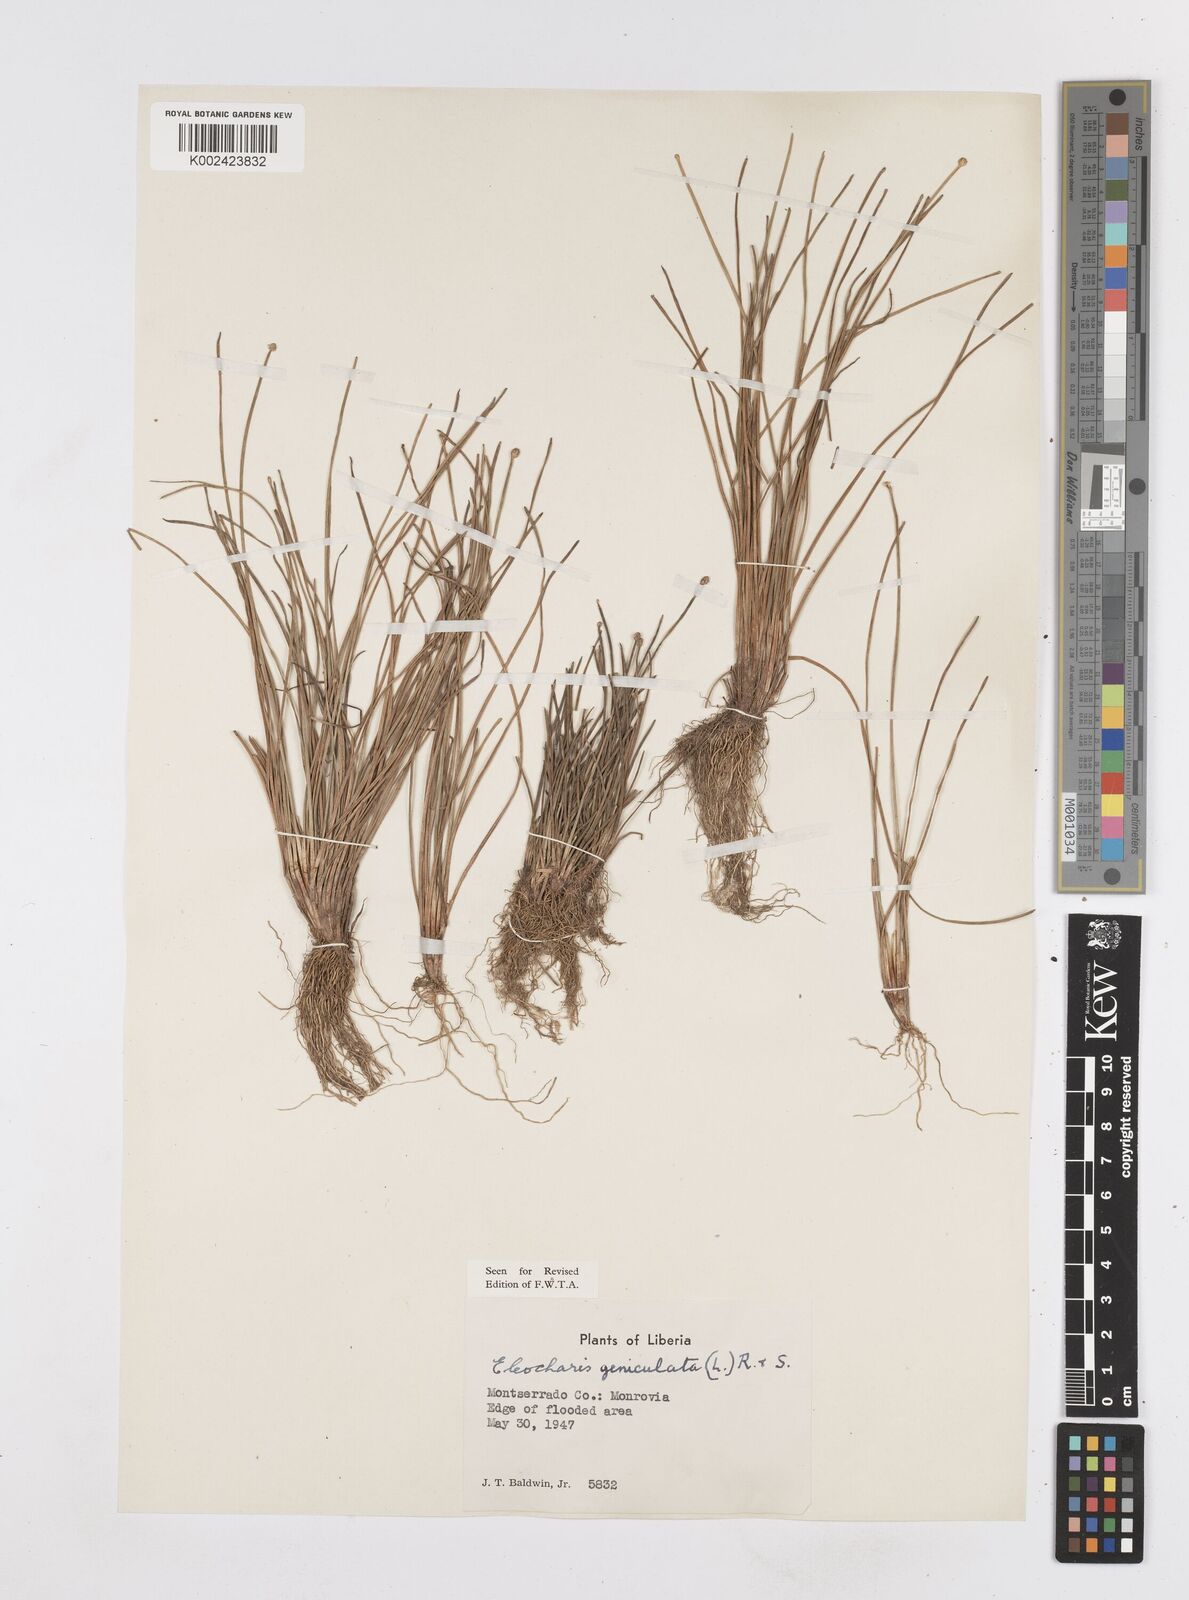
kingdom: Plantae
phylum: Tracheophyta
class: Liliopsida
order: Poales
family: Cyperaceae
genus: Eleocharis
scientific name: Eleocharis geniculata
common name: Canada spikesedge
